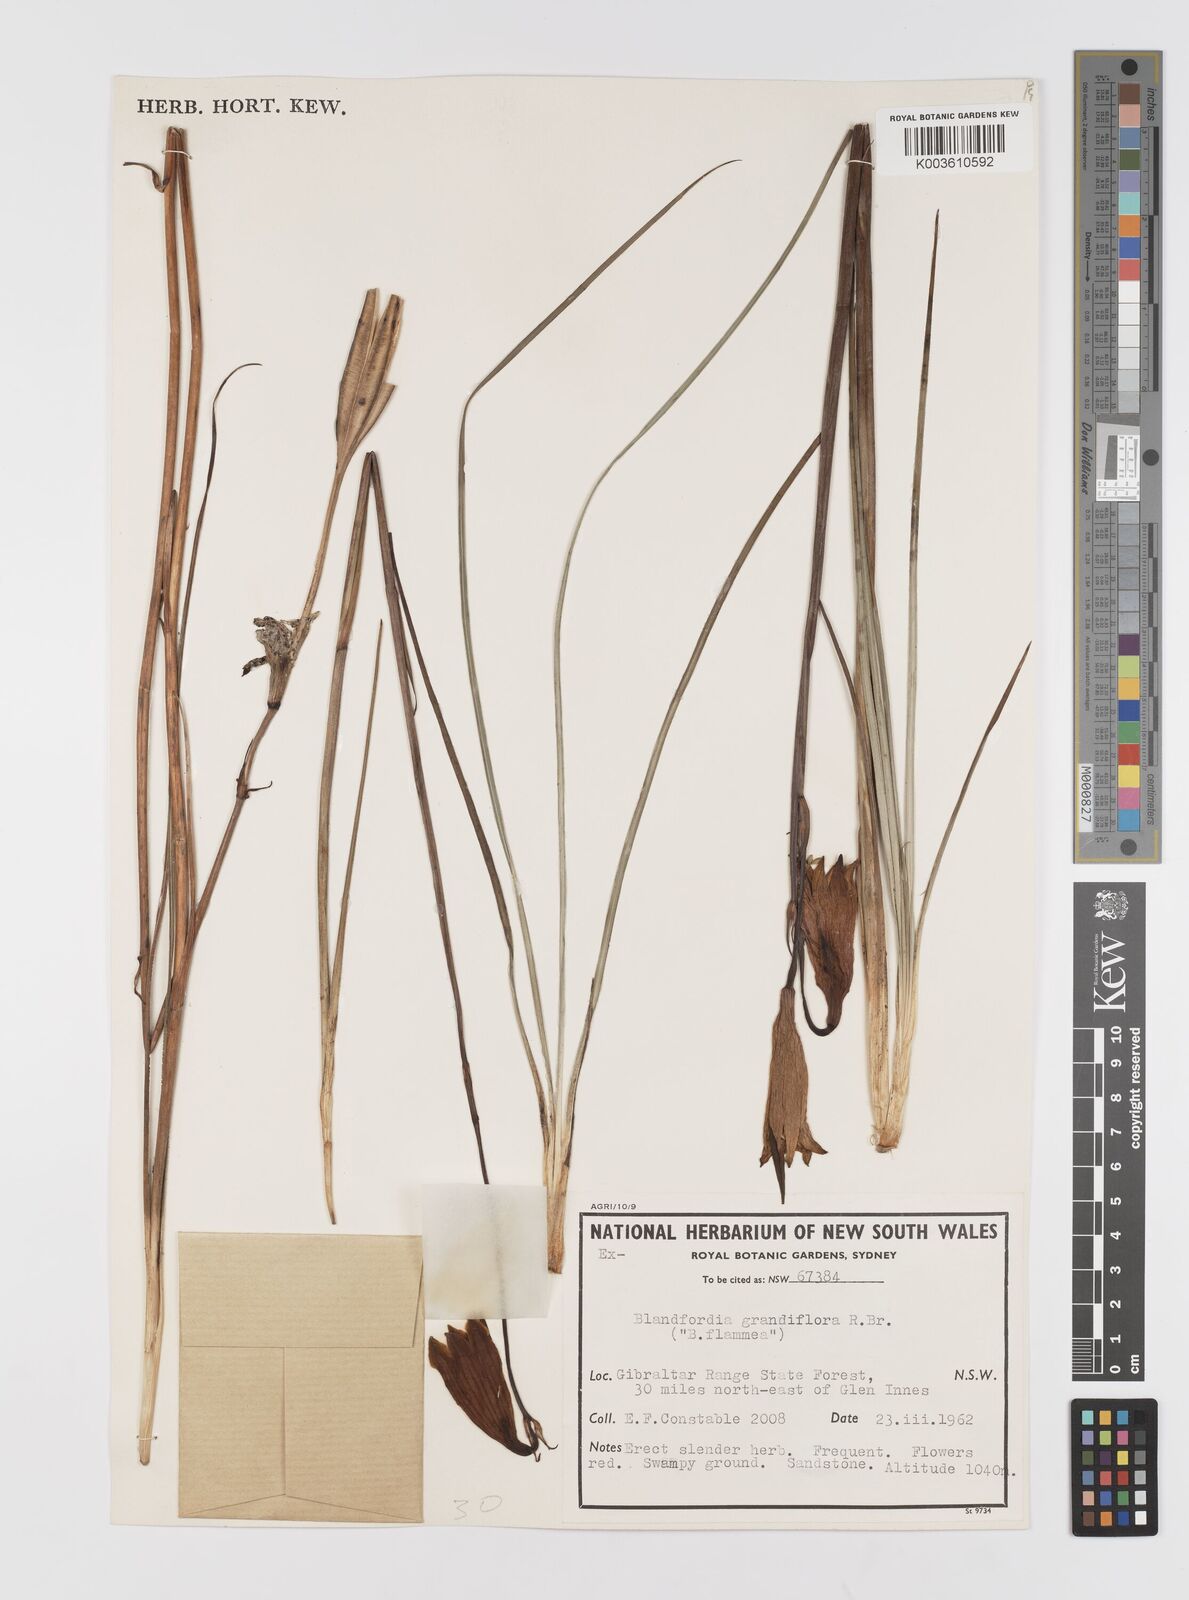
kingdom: Plantae
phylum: Tracheophyta
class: Liliopsida
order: Asparagales
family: Blandfordiaceae
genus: Blandfordia
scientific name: Blandfordia cunninghamii
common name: Christmas-bell
